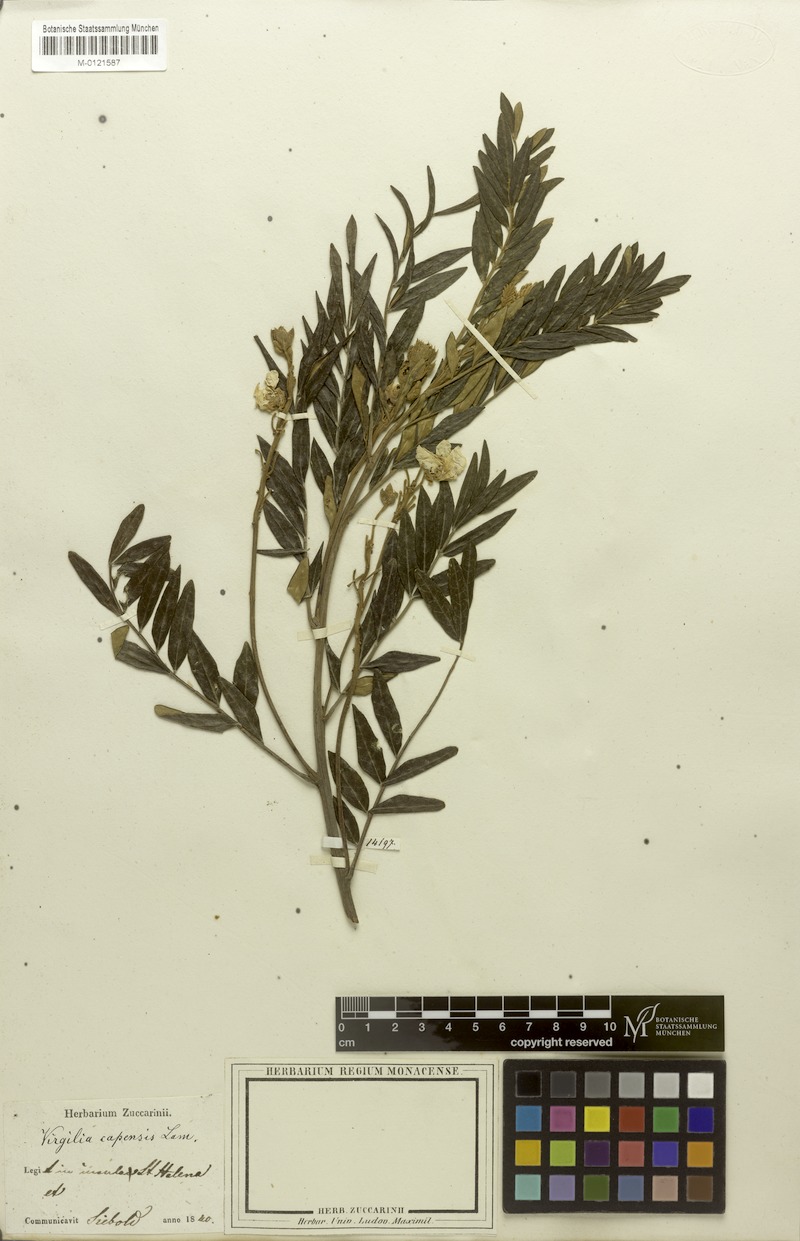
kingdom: Plantae
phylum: Tracheophyta
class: Magnoliopsida
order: Fabales
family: Fabaceae
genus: Virgilia
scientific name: Virgilia oroboides
